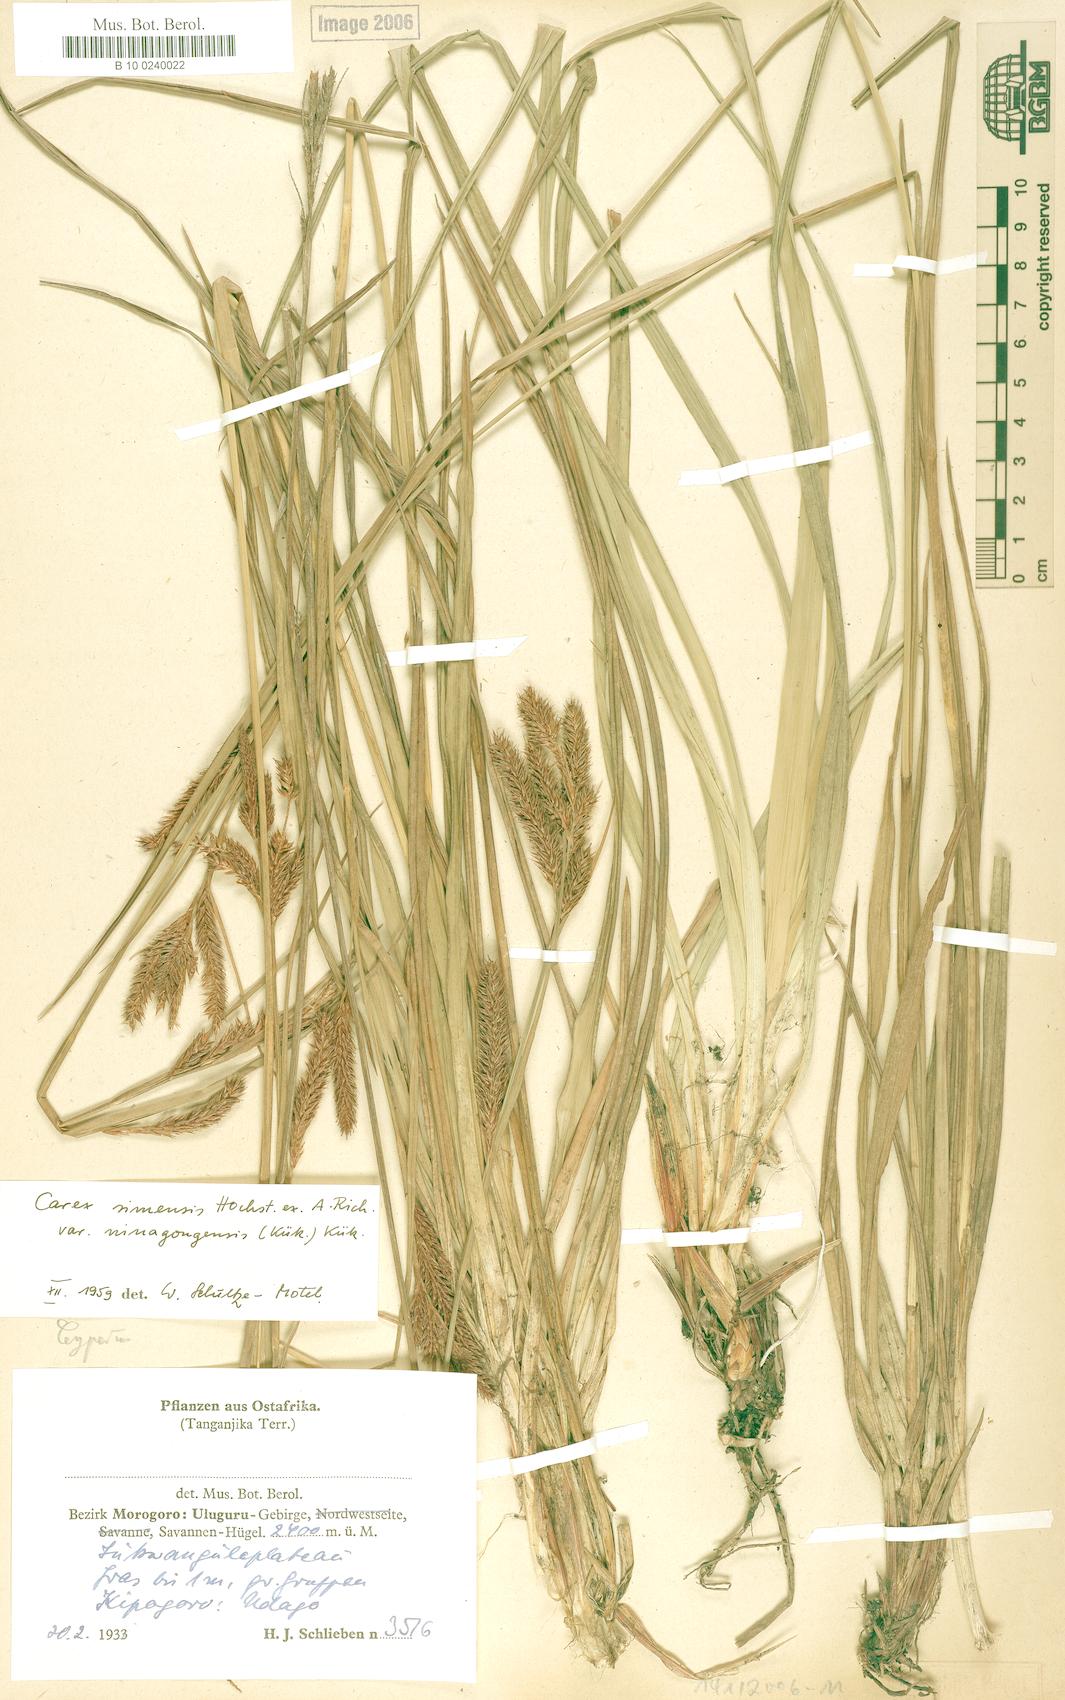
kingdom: Plantae
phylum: Tracheophyta
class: Liliopsida
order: Poales
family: Cyperaceae
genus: Carex
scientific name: Carex uluguruensis
